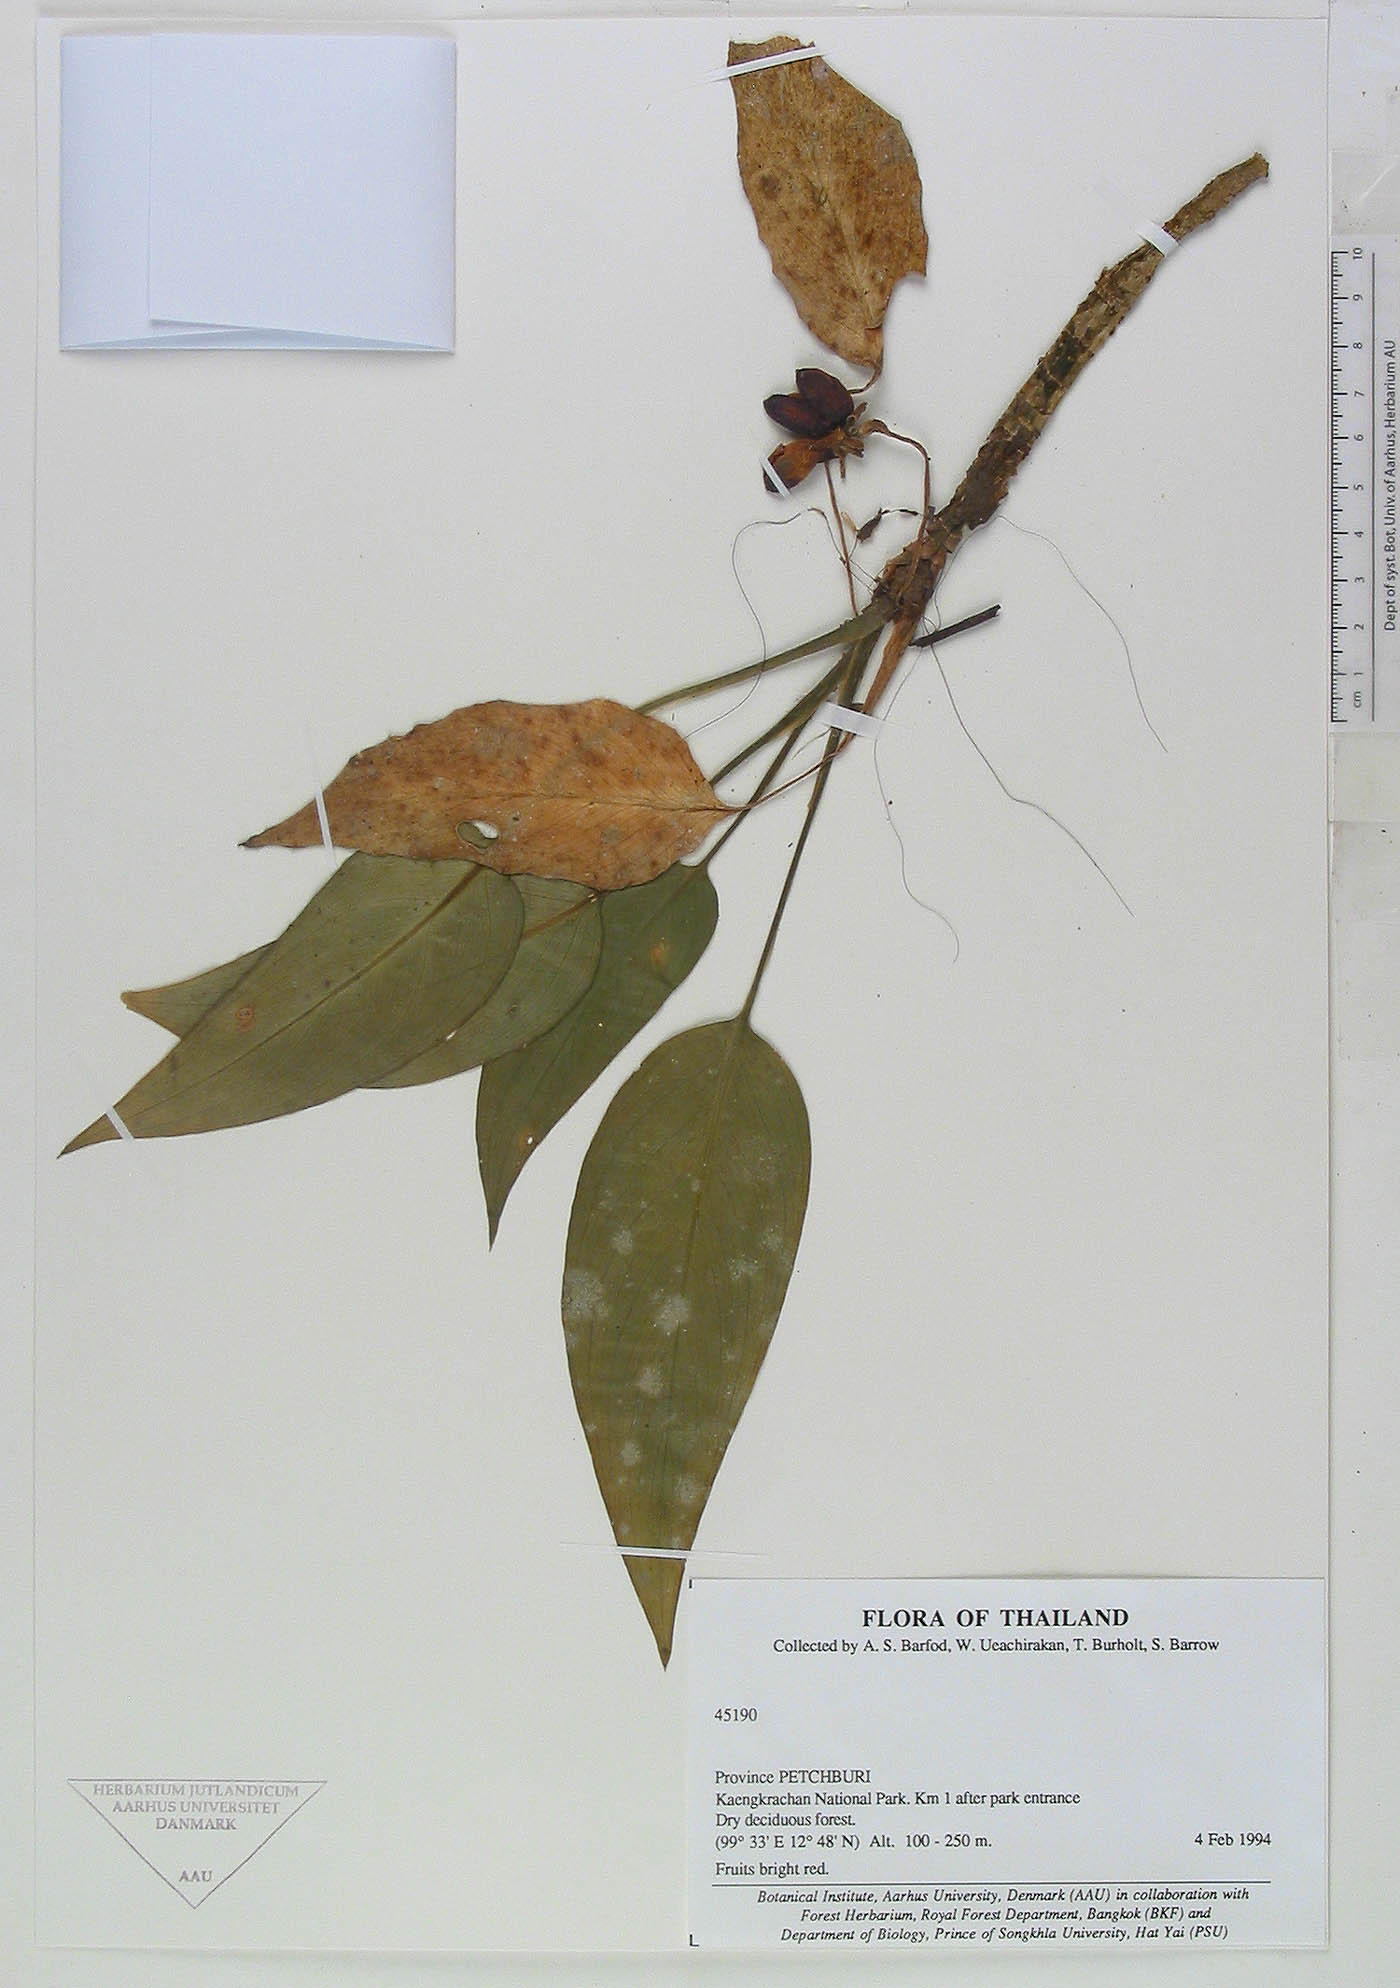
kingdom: Plantae
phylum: Tracheophyta
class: Liliopsida
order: Alismatales
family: Araceae
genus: Aglaonema
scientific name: Aglaonema modestum
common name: Chinese evergreen
